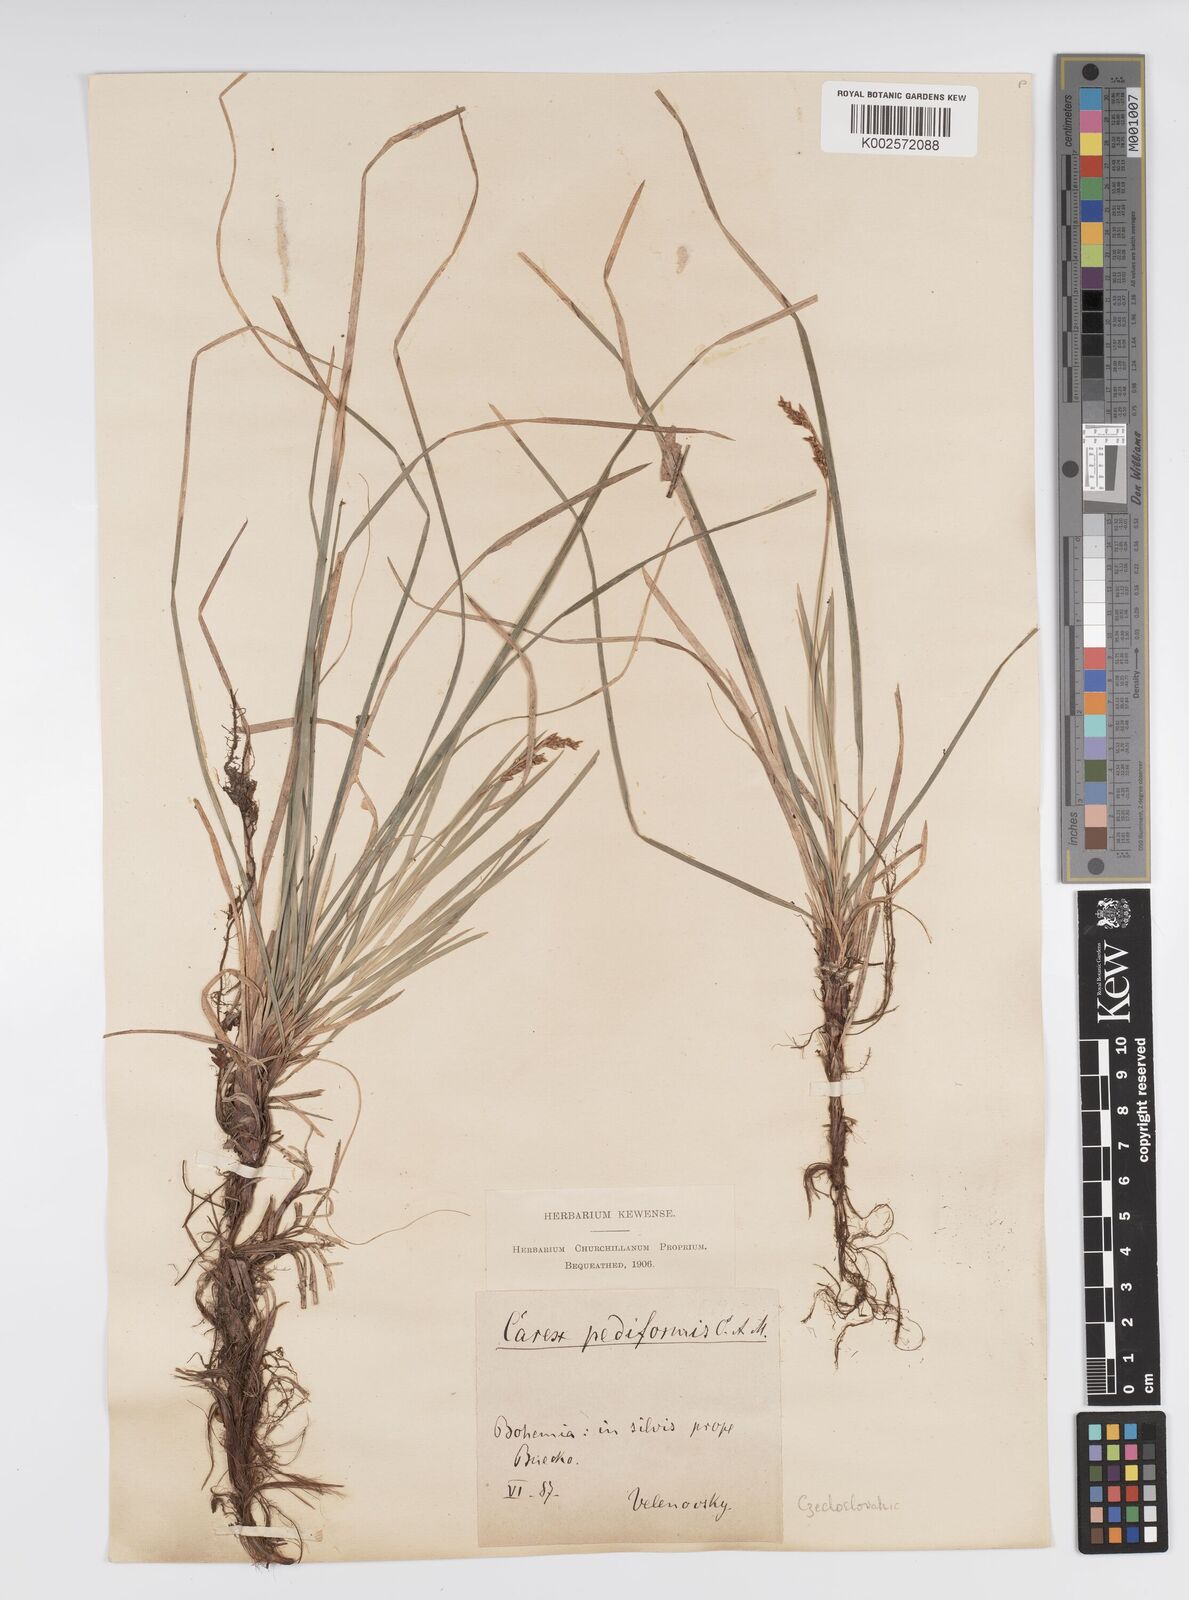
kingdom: Plantae
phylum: Tracheophyta
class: Liliopsida
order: Poales
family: Cyperaceae
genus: Carex
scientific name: Carex pediformis
